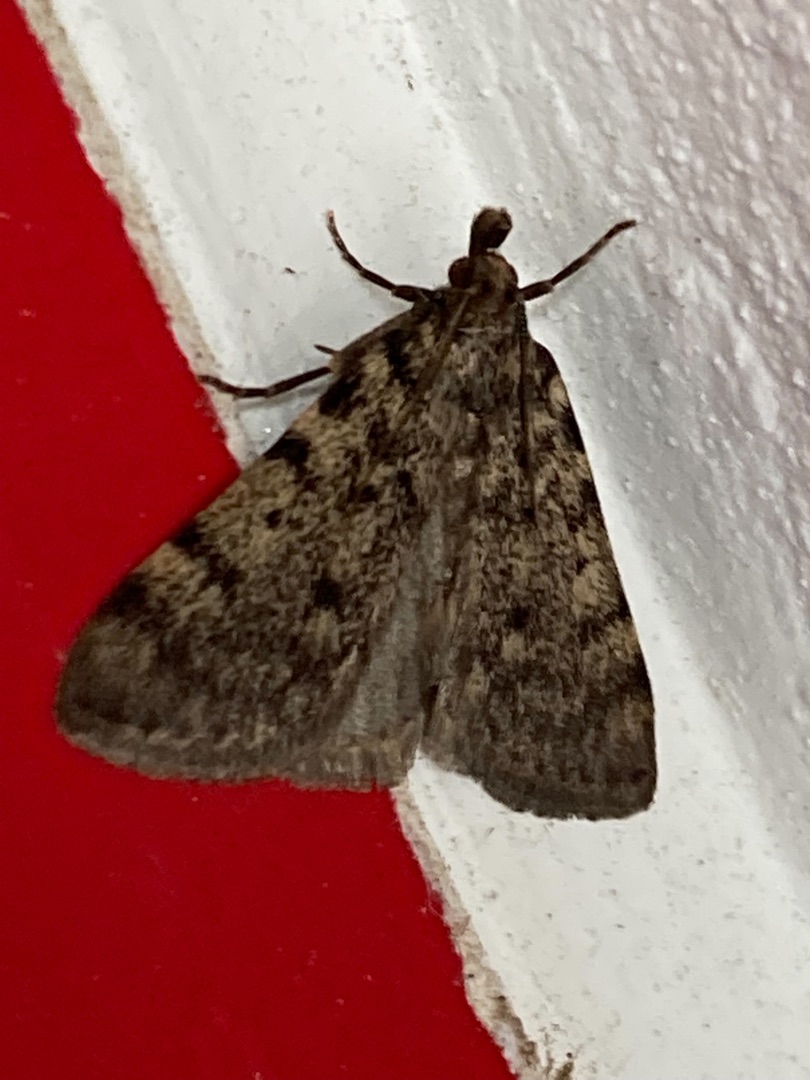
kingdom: Animalia
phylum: Arthropoda
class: Insecta
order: Lepidoptera
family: Pyralidae
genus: Aglossa
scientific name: Aglossa pinguinalis
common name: Fedtmøl
